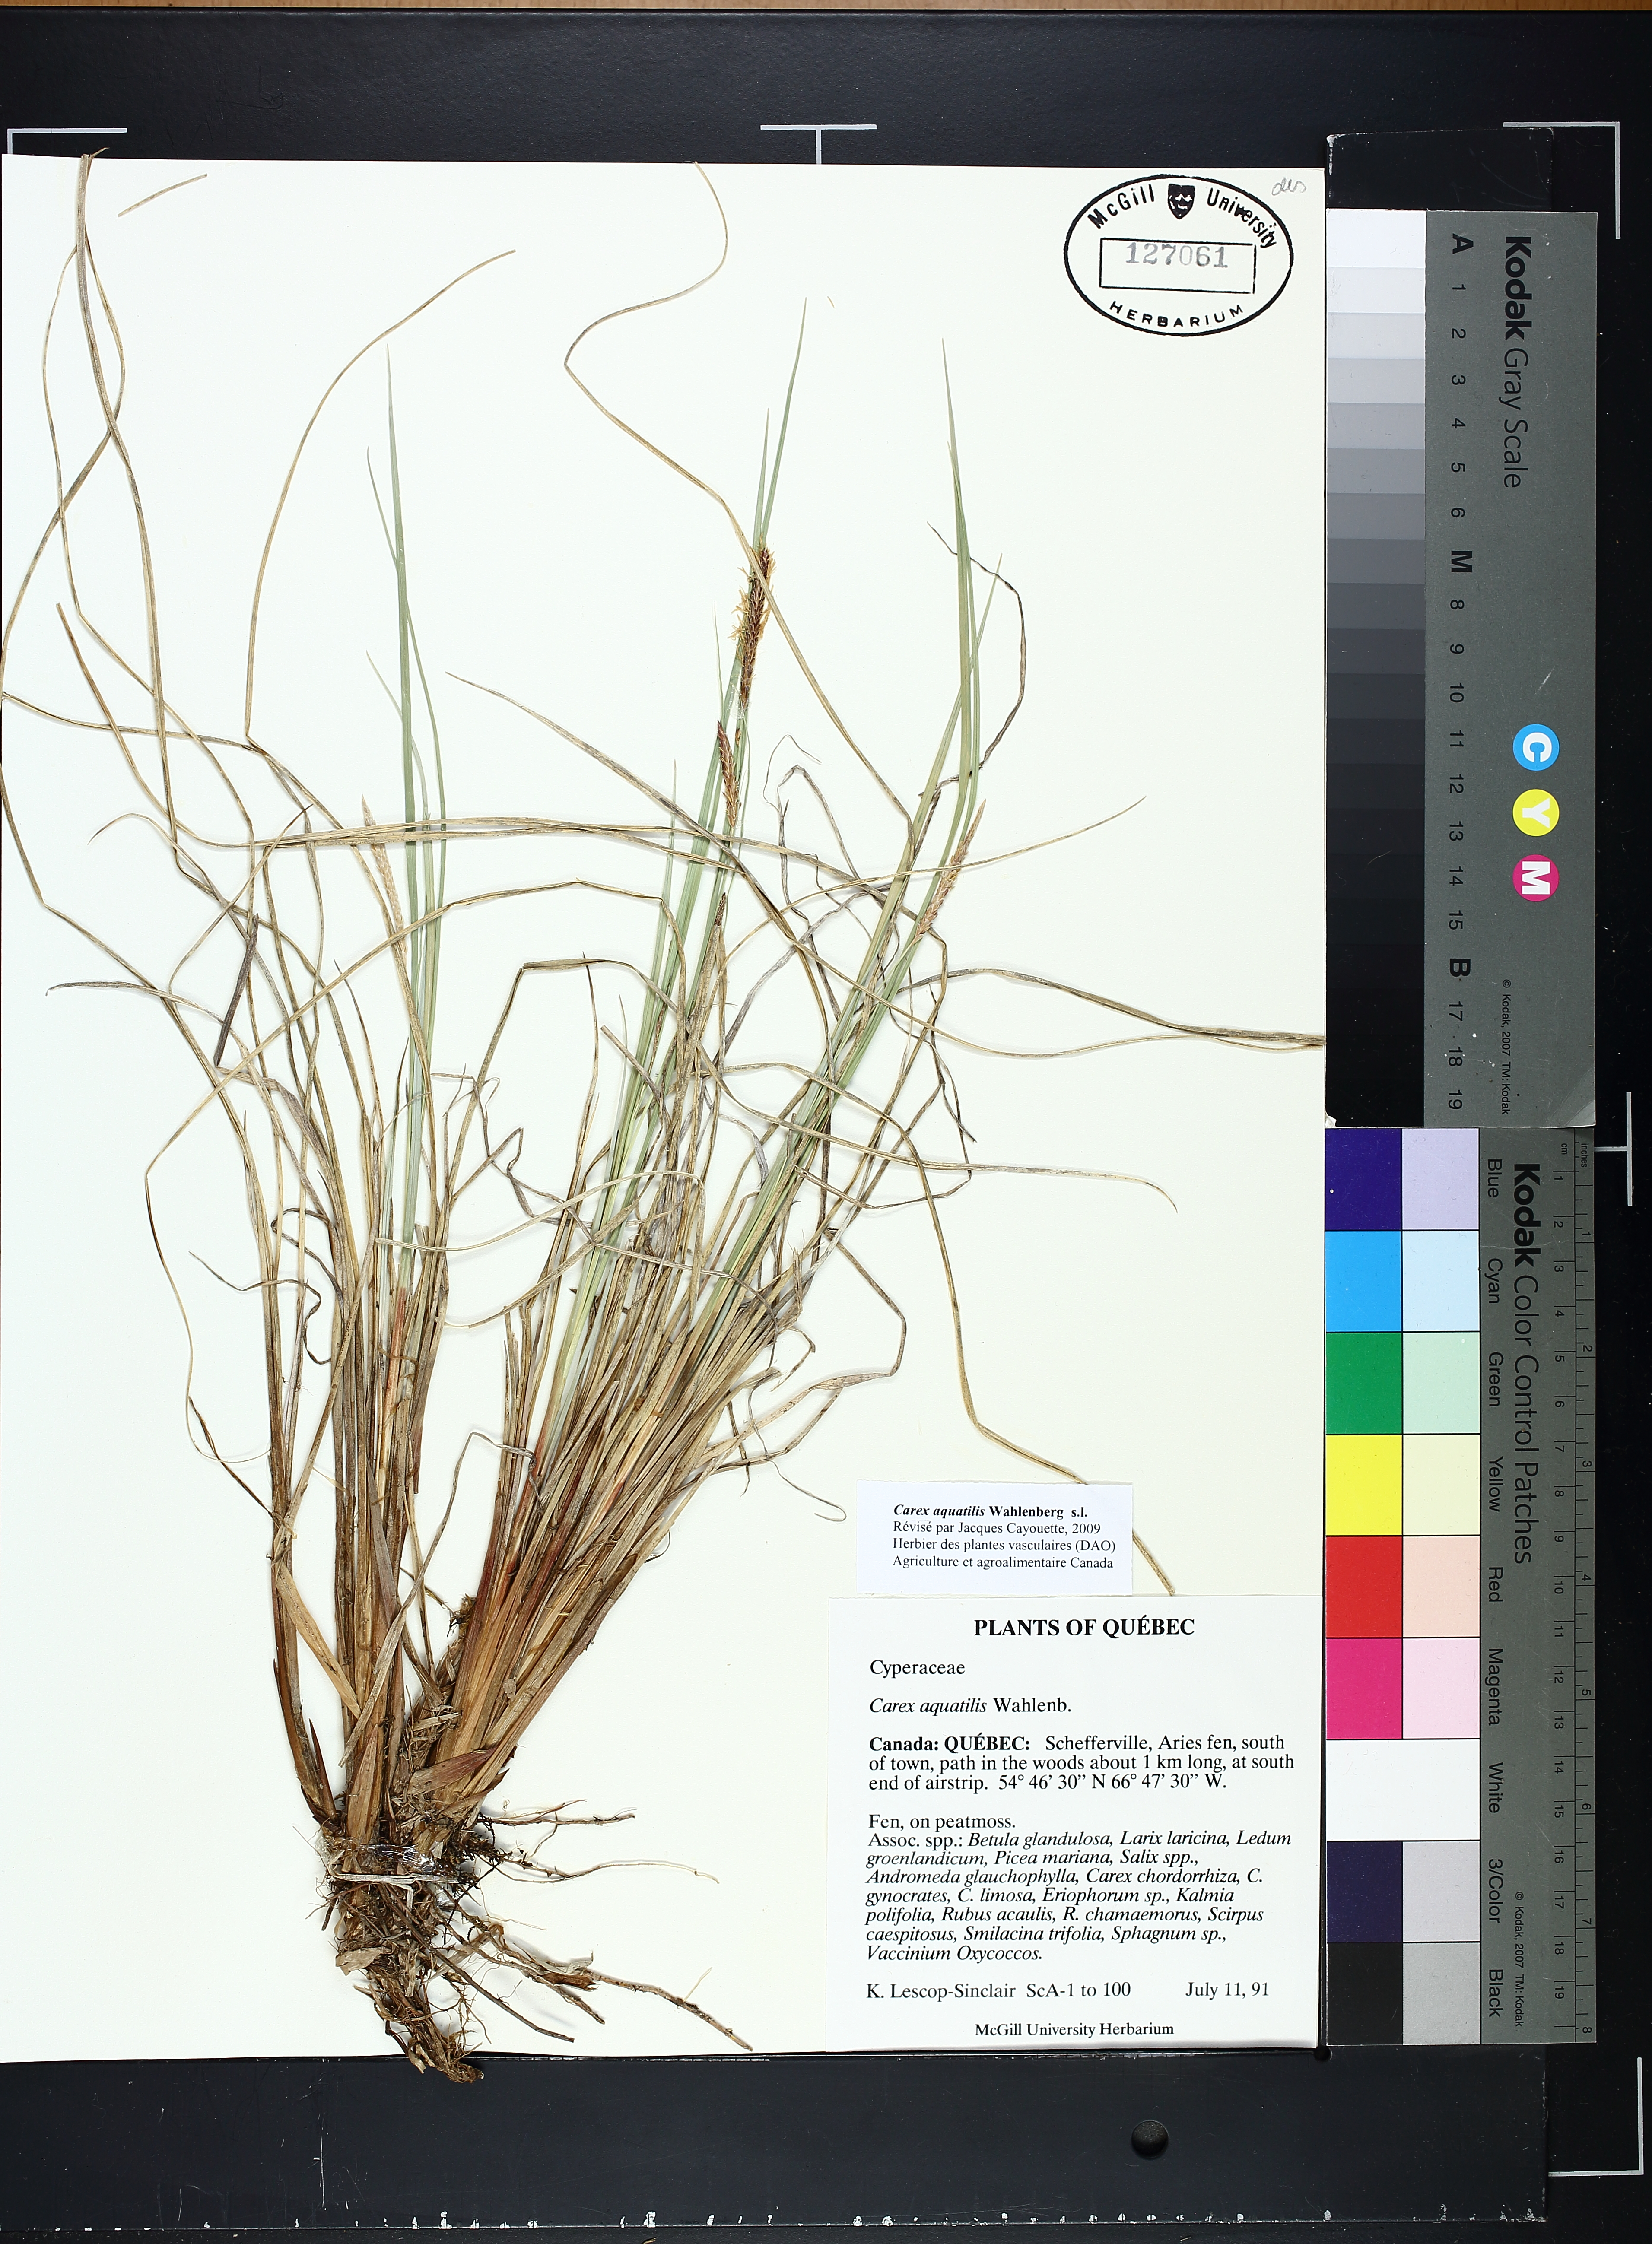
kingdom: Plantae
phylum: Tracheophyta
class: Liliopsida
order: Poales
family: Cyperaceae
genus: Carex
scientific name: Carex aquatilis
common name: Water sedge
